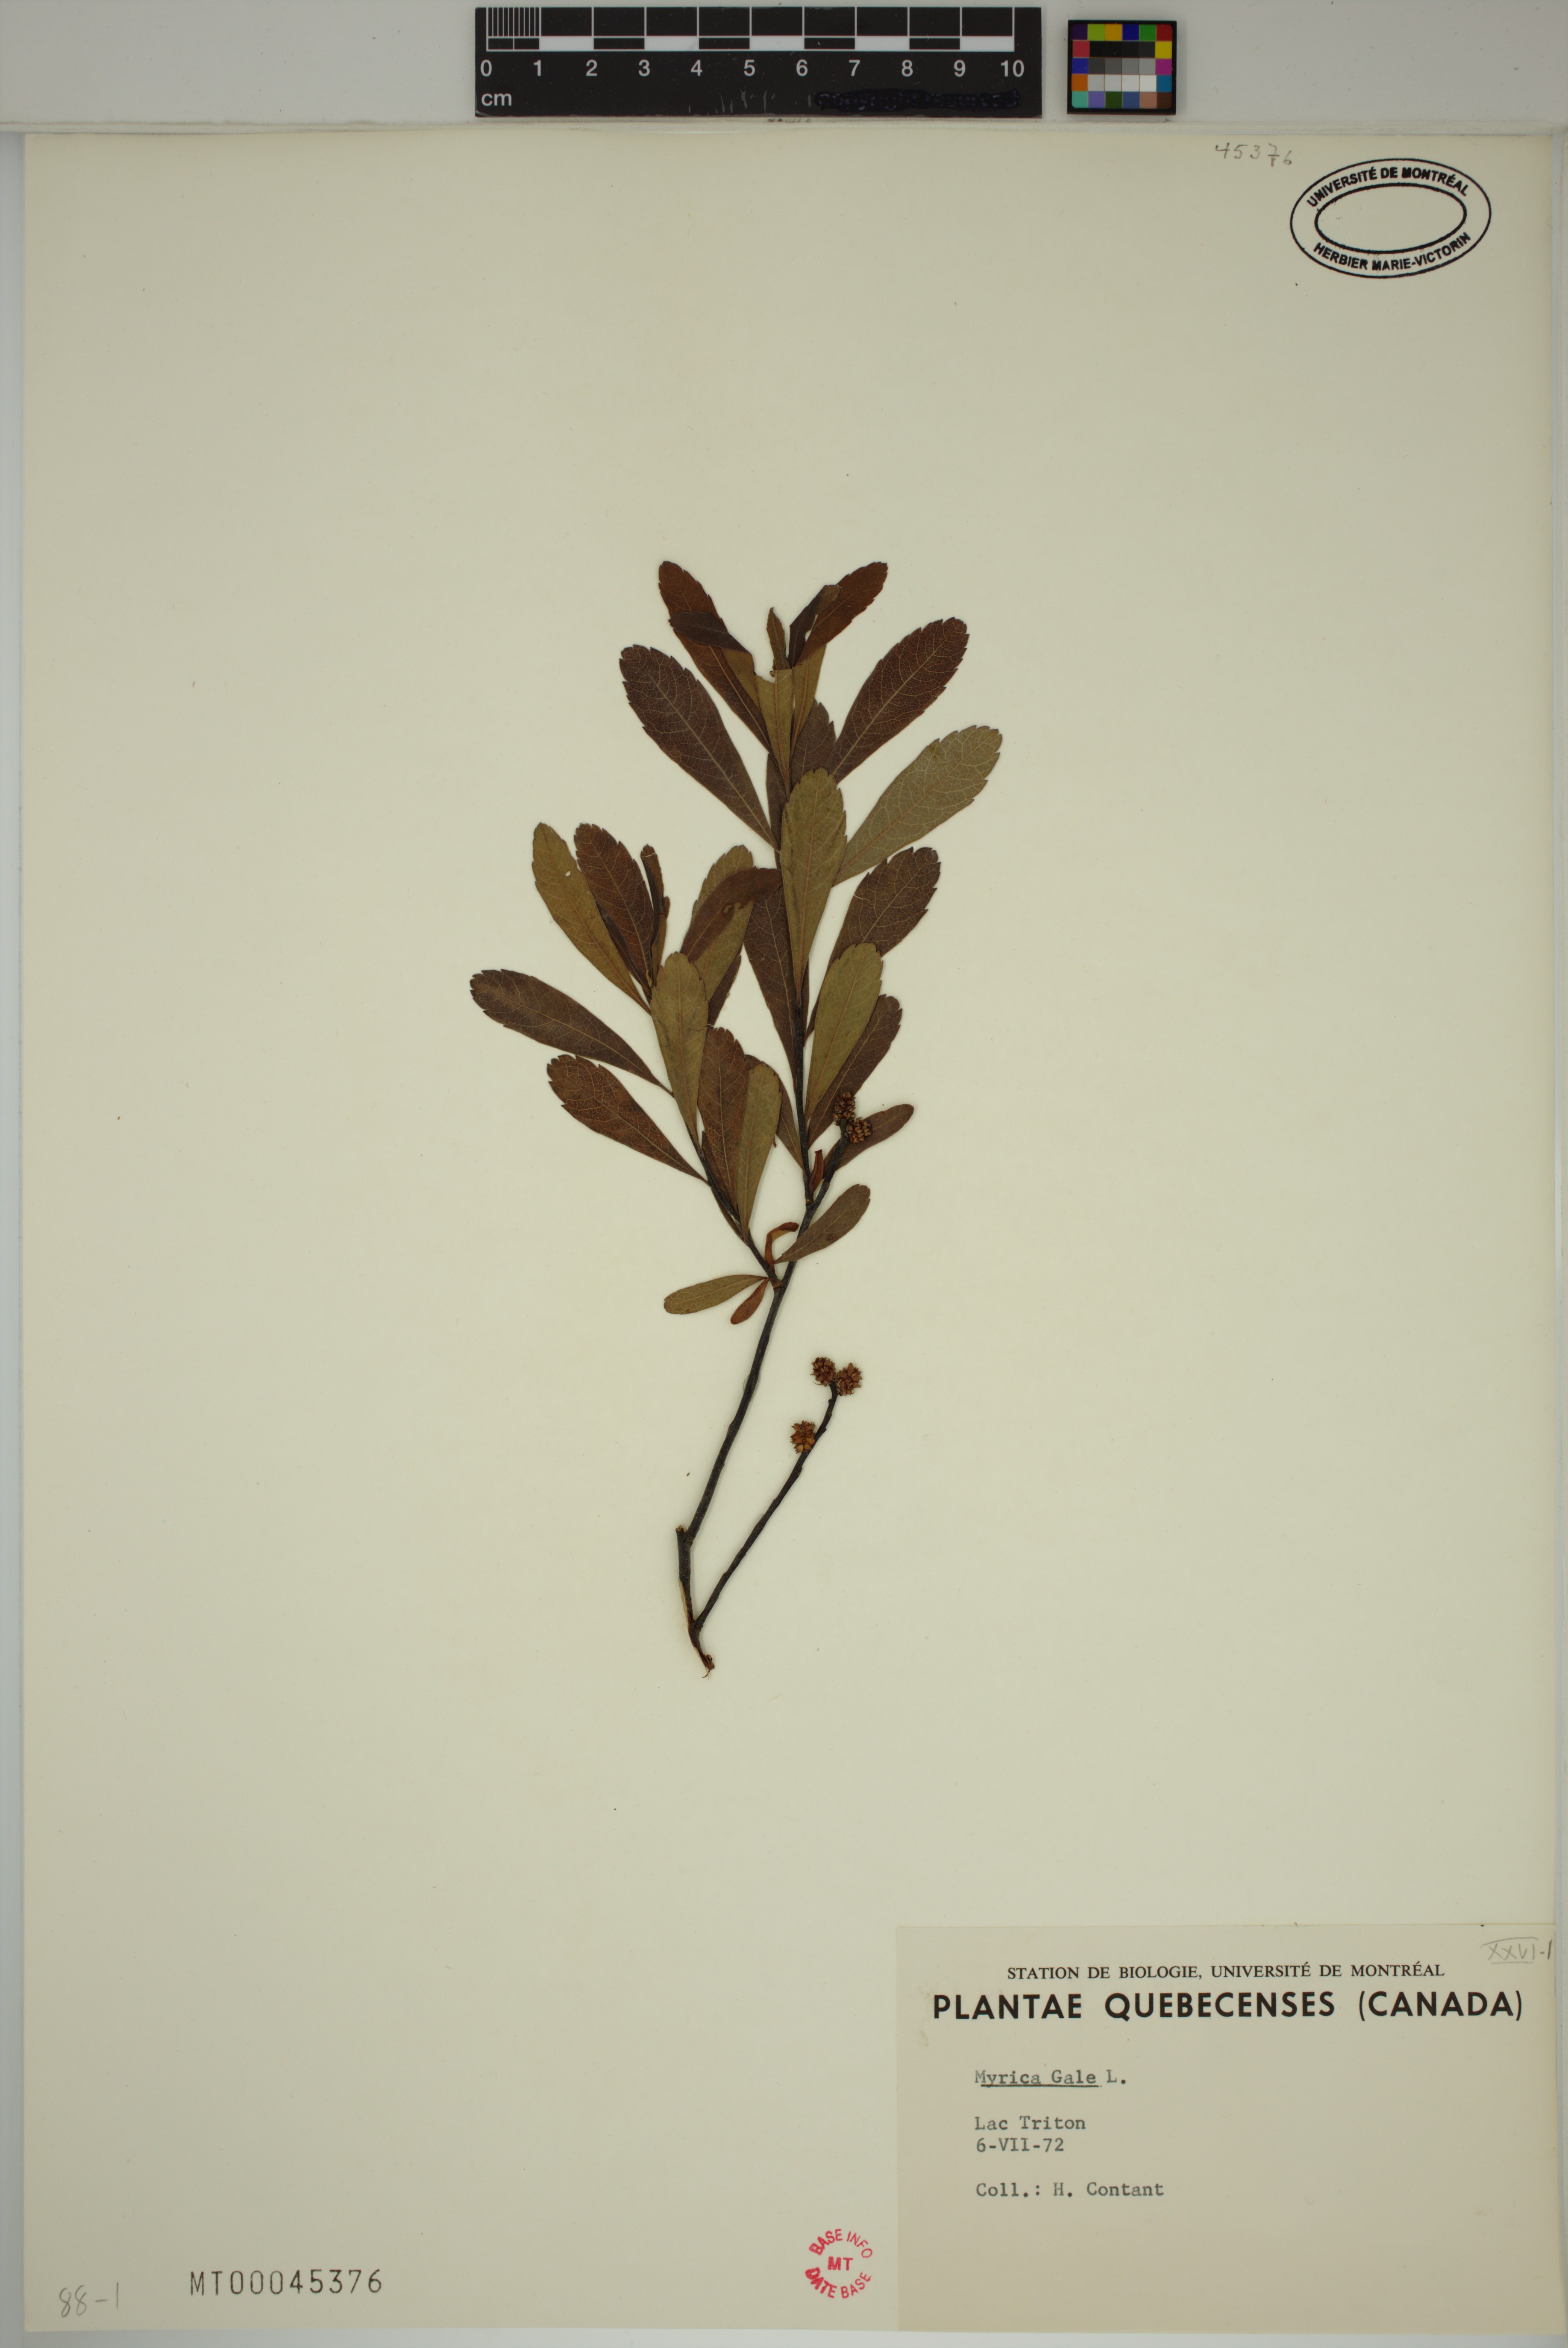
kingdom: Plantae
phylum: Tracheophyta
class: Magnoliopsida
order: Fagales
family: Myricaceae
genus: Myrica
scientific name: Myrica gale
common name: Sweet gale
